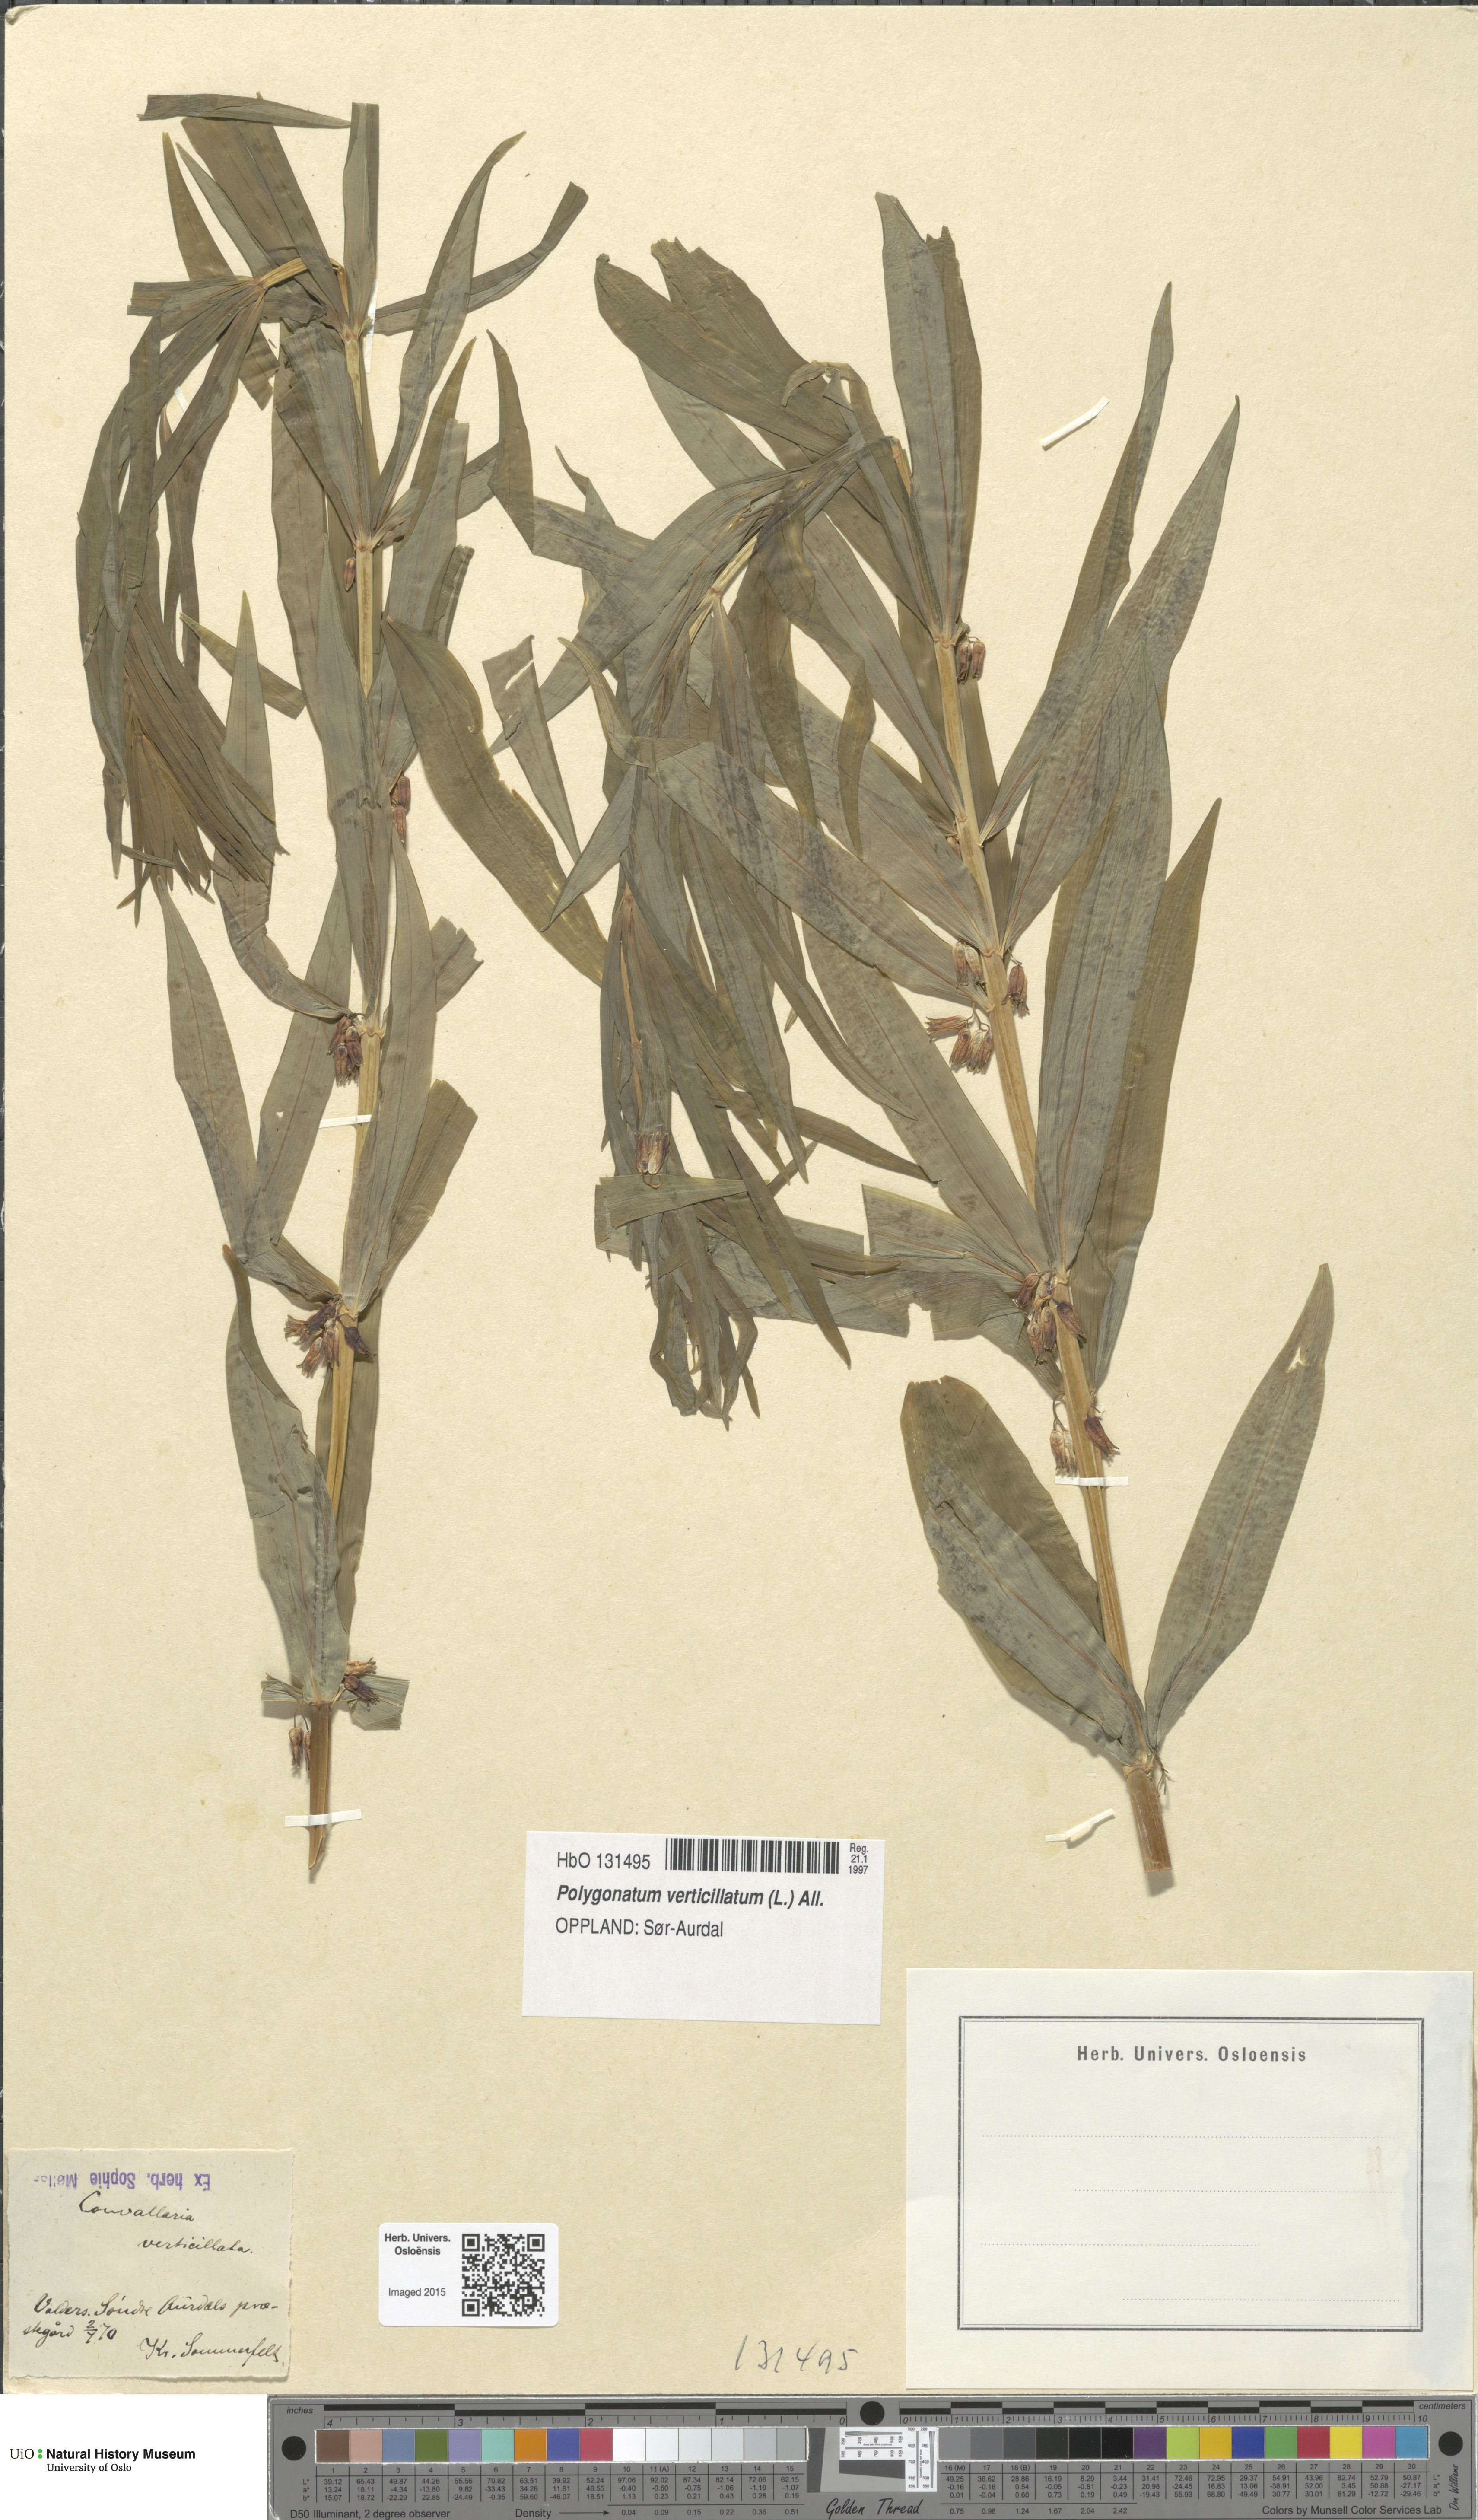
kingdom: Plantae
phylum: Tracheophyta
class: Liliopsida
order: Asparagales
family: Asparagaceae
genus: Polygonatum
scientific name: Polygonatum verticillatum
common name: Whorled solomon's-seal
